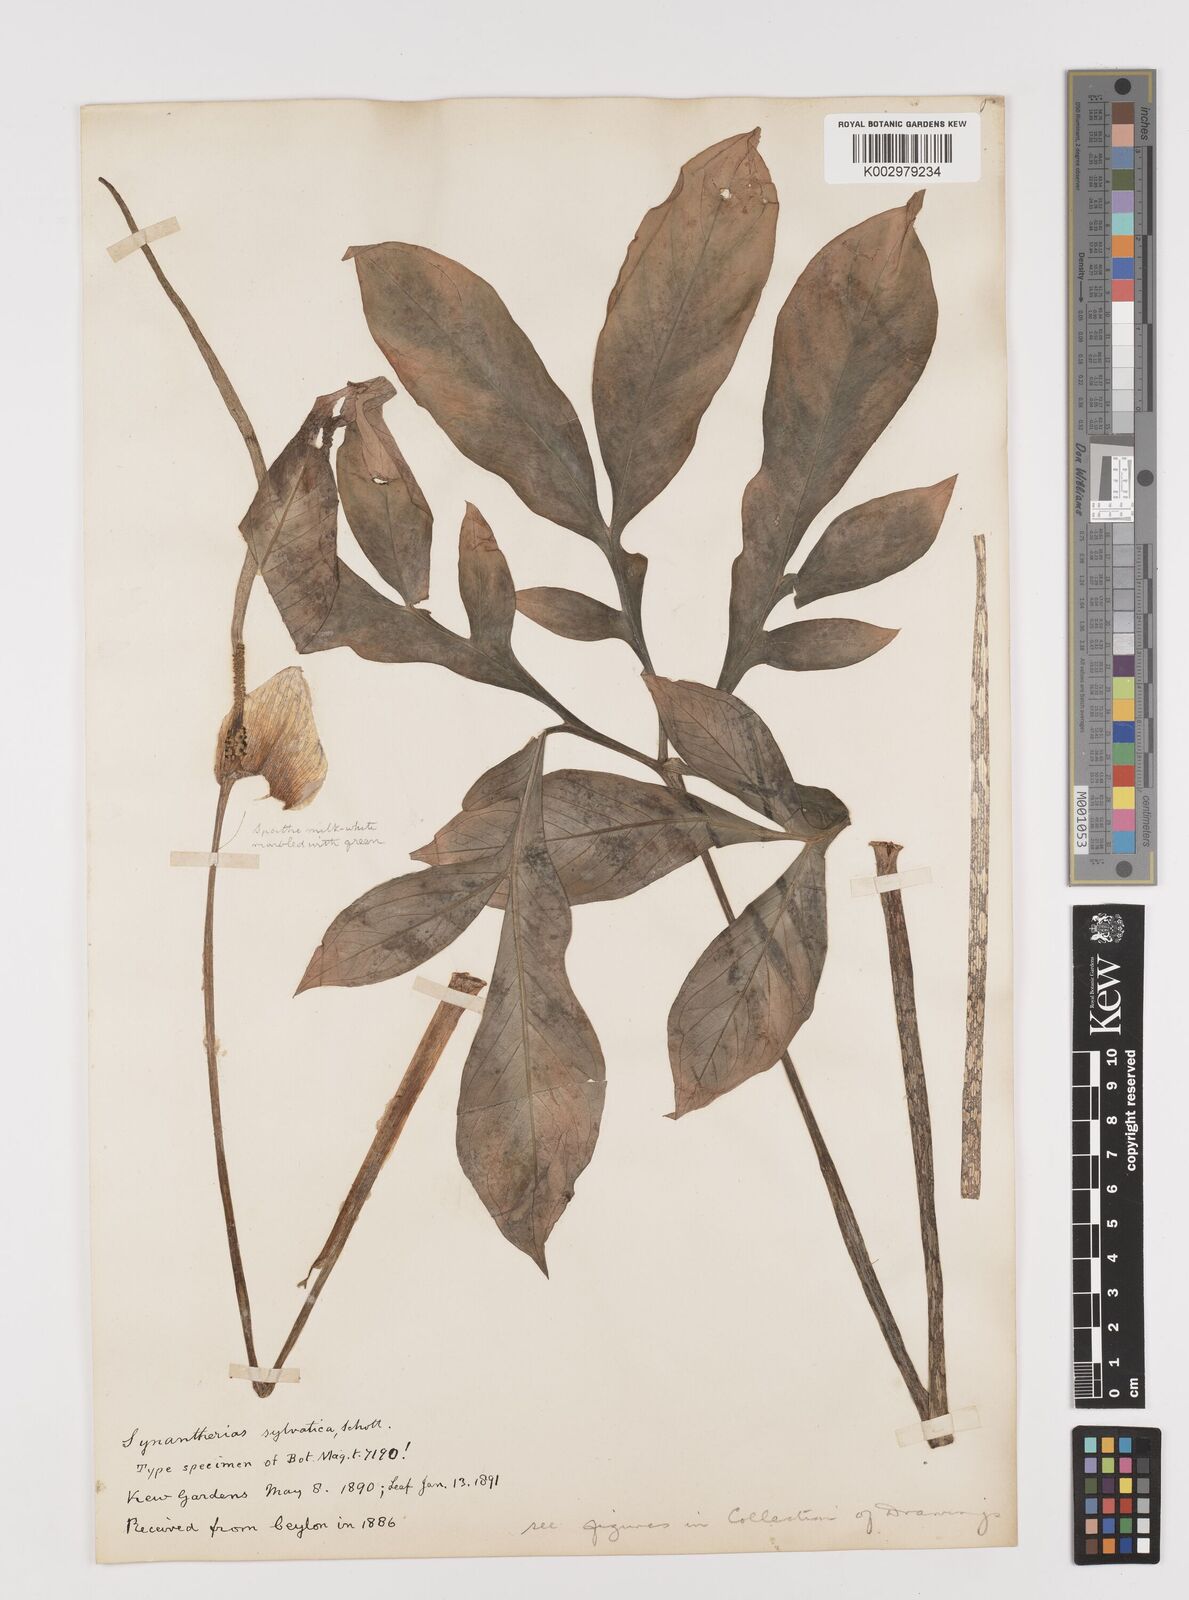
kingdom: Plantae
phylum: Tracheophyta
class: Liliopsida
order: Alismatales
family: Araceae
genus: Amorphophallus
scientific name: Amorphophallus sylvaticus
